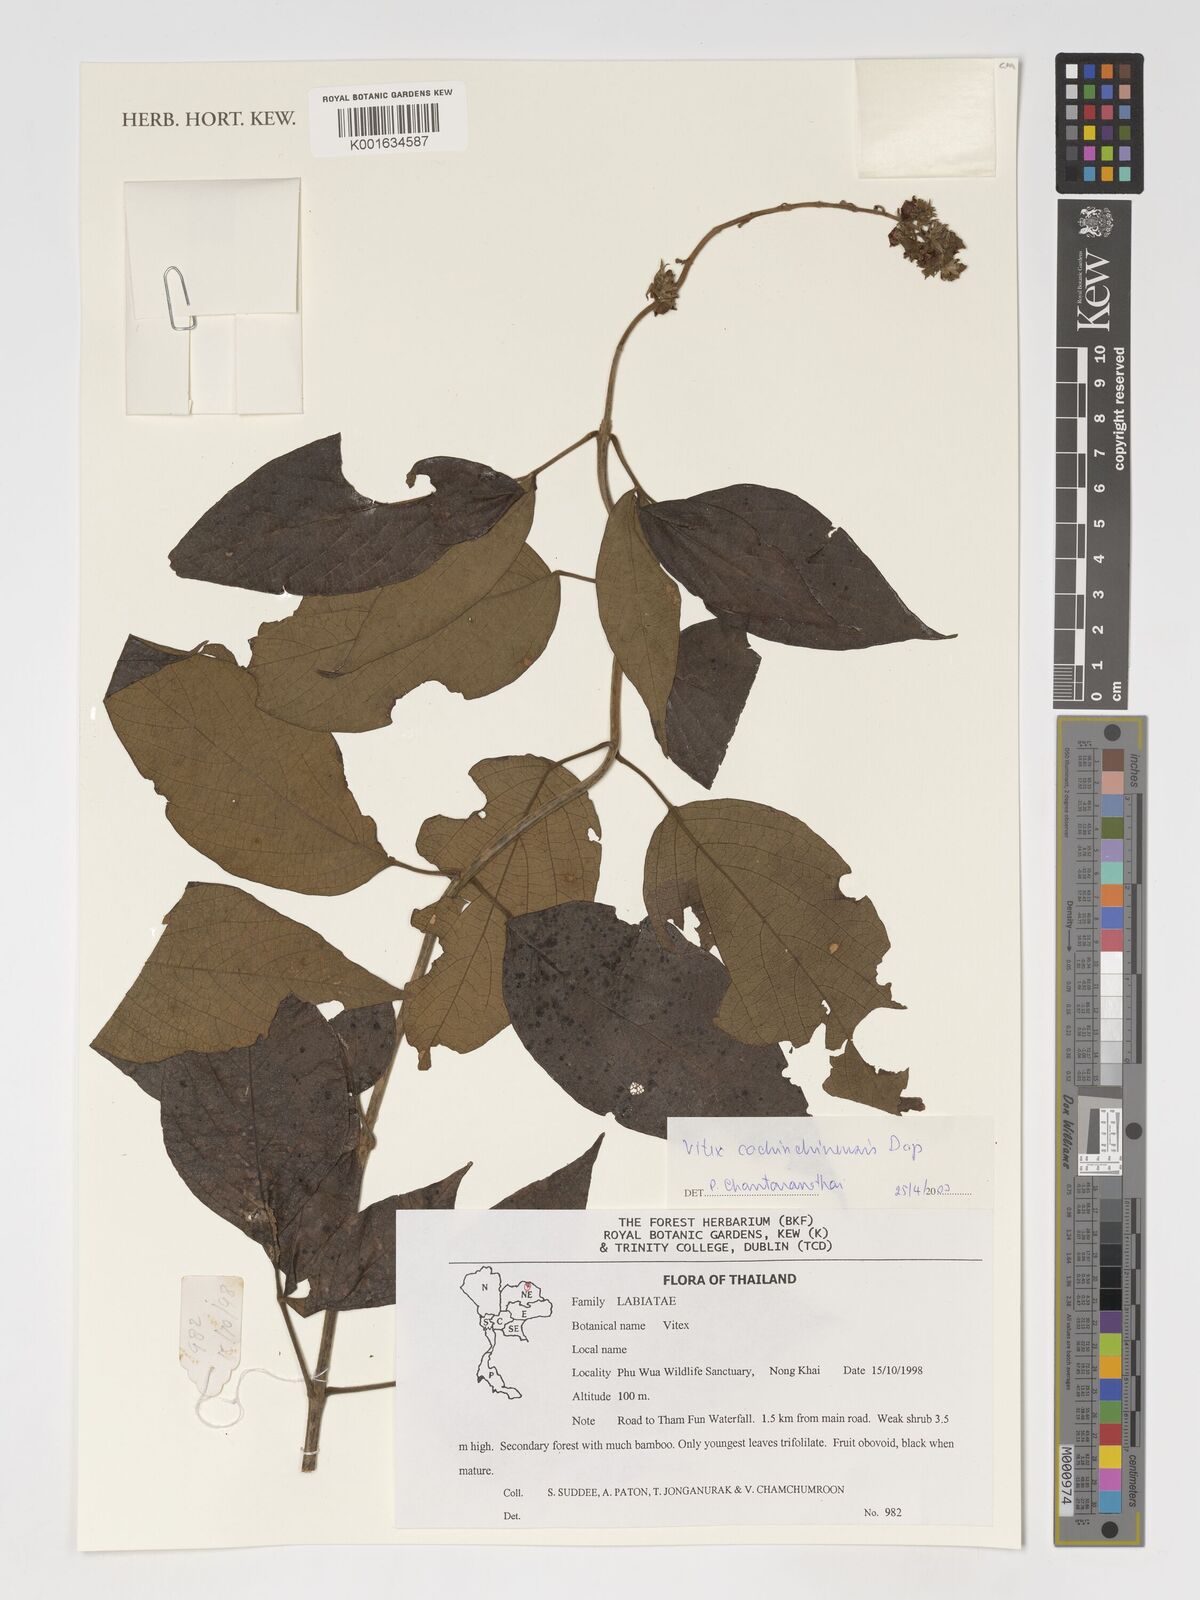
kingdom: Plantae
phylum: Tracheophyta
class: Magnoliopsida
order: Lamiales
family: Lamiaceae
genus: Vitex
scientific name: Vitex cochinchinensis
